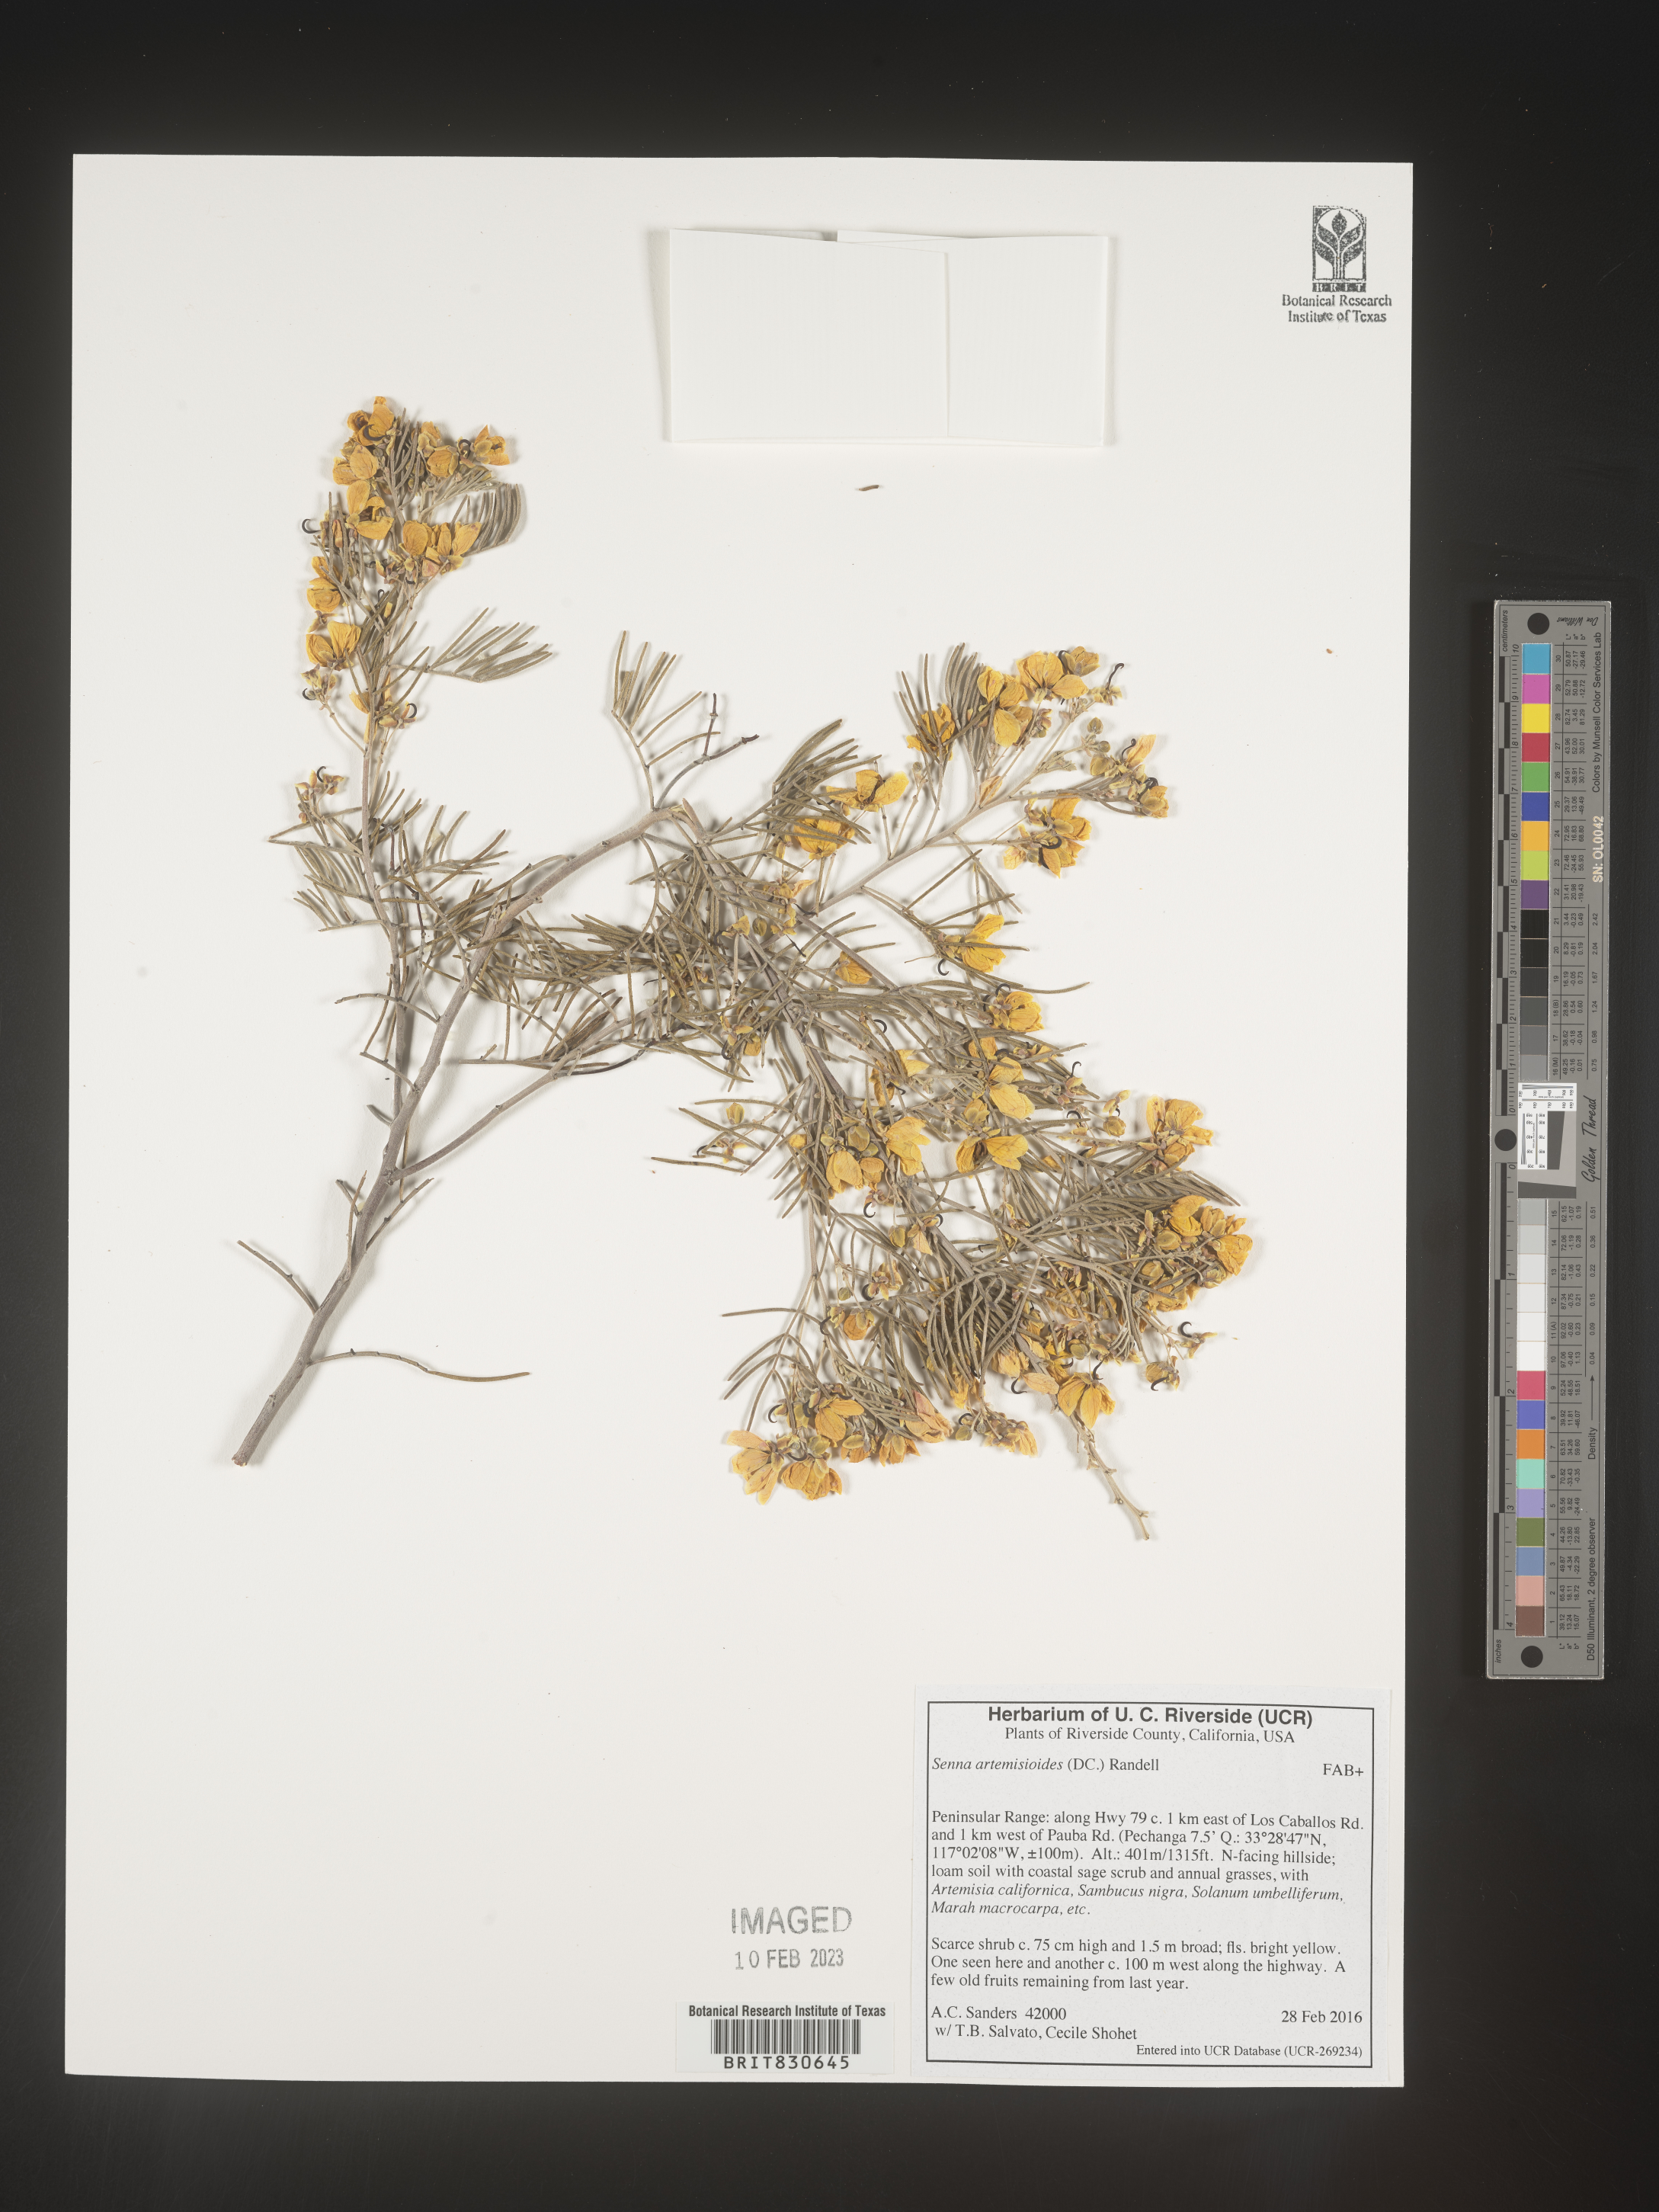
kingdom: Plantae
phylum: Tracheophyta
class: Magnoliopsida
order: Fabales
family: Fabaceae
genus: Senna
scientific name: Senna
